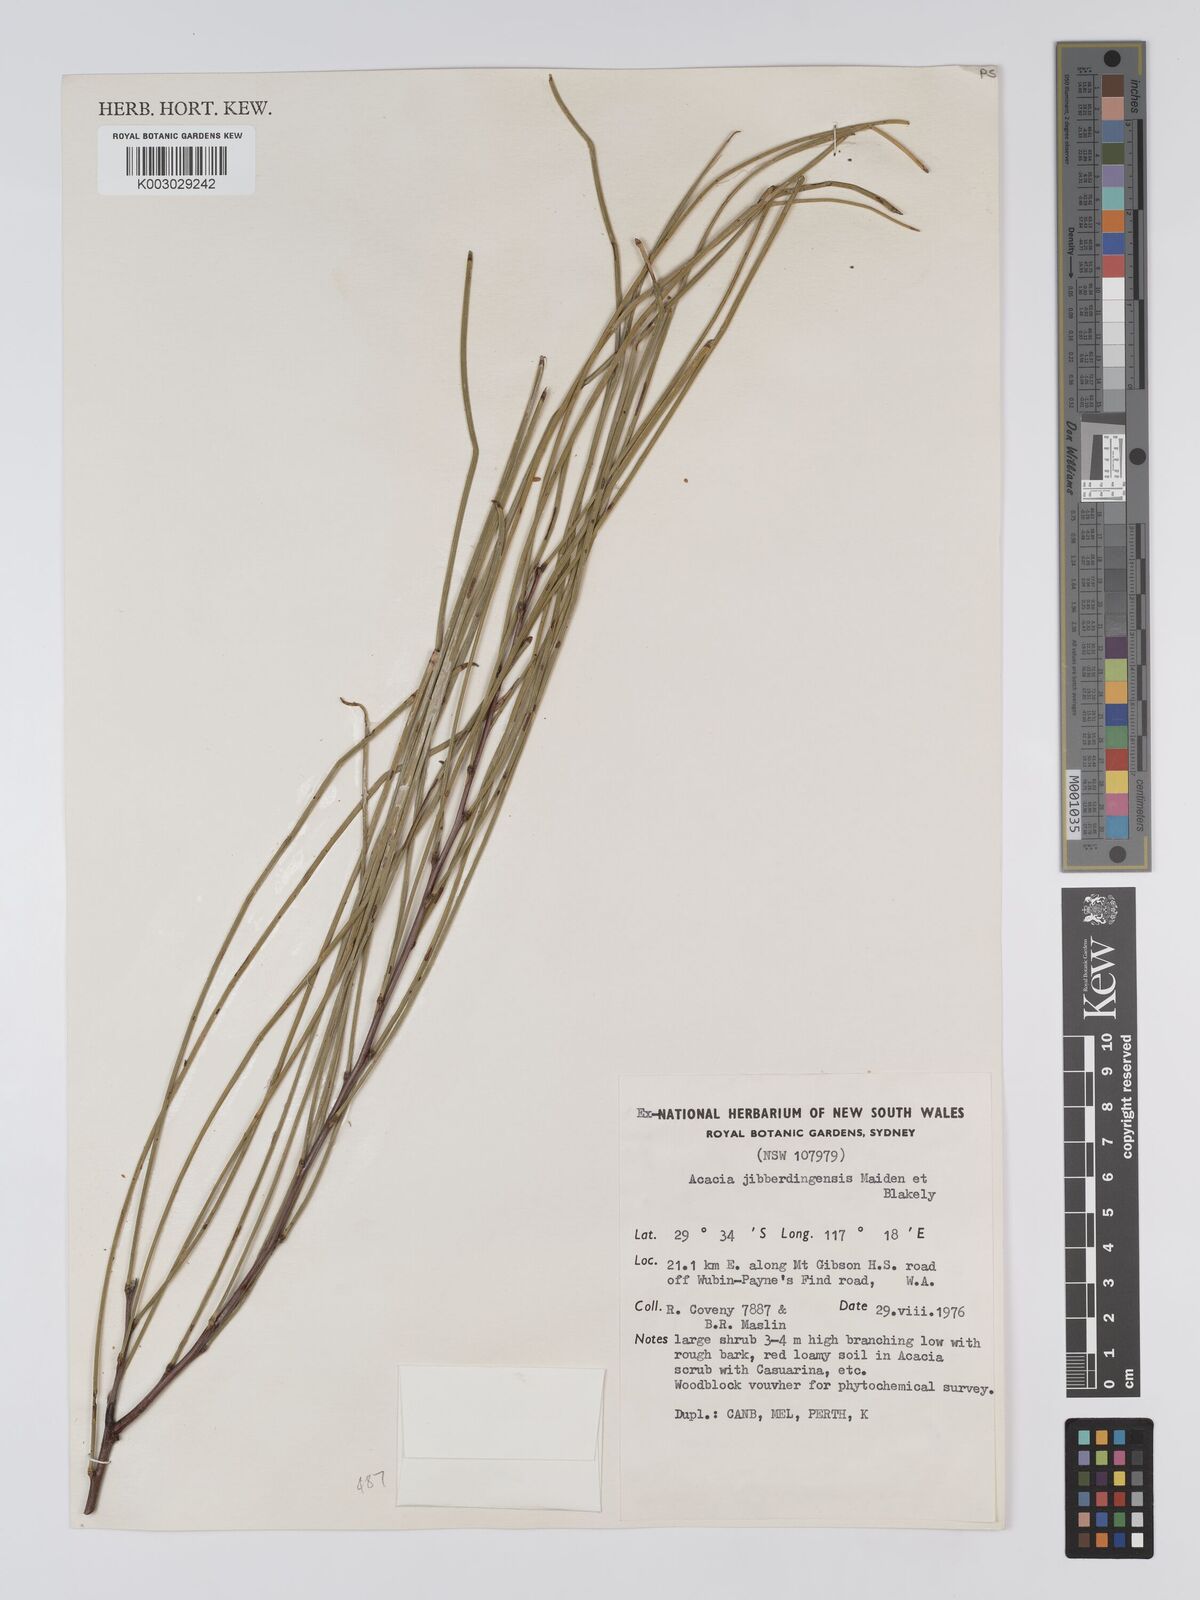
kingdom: Plantae
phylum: Tracheophyta
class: Magnoliopsida
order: Fabales
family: Fabaceae
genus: Acacia
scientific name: Acacia jibberdingensis
